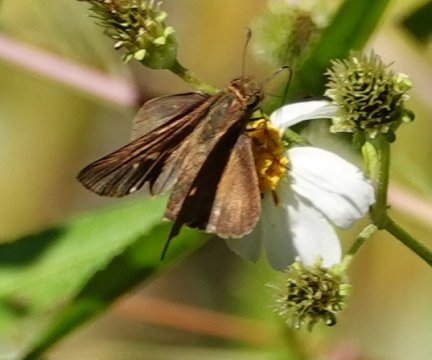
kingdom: Animalia
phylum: Arthropoda
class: Insecta
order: Lepidoptera
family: Hesperiidae
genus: Panoquina
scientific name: Panoquina ocola
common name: Ocola Skipper
